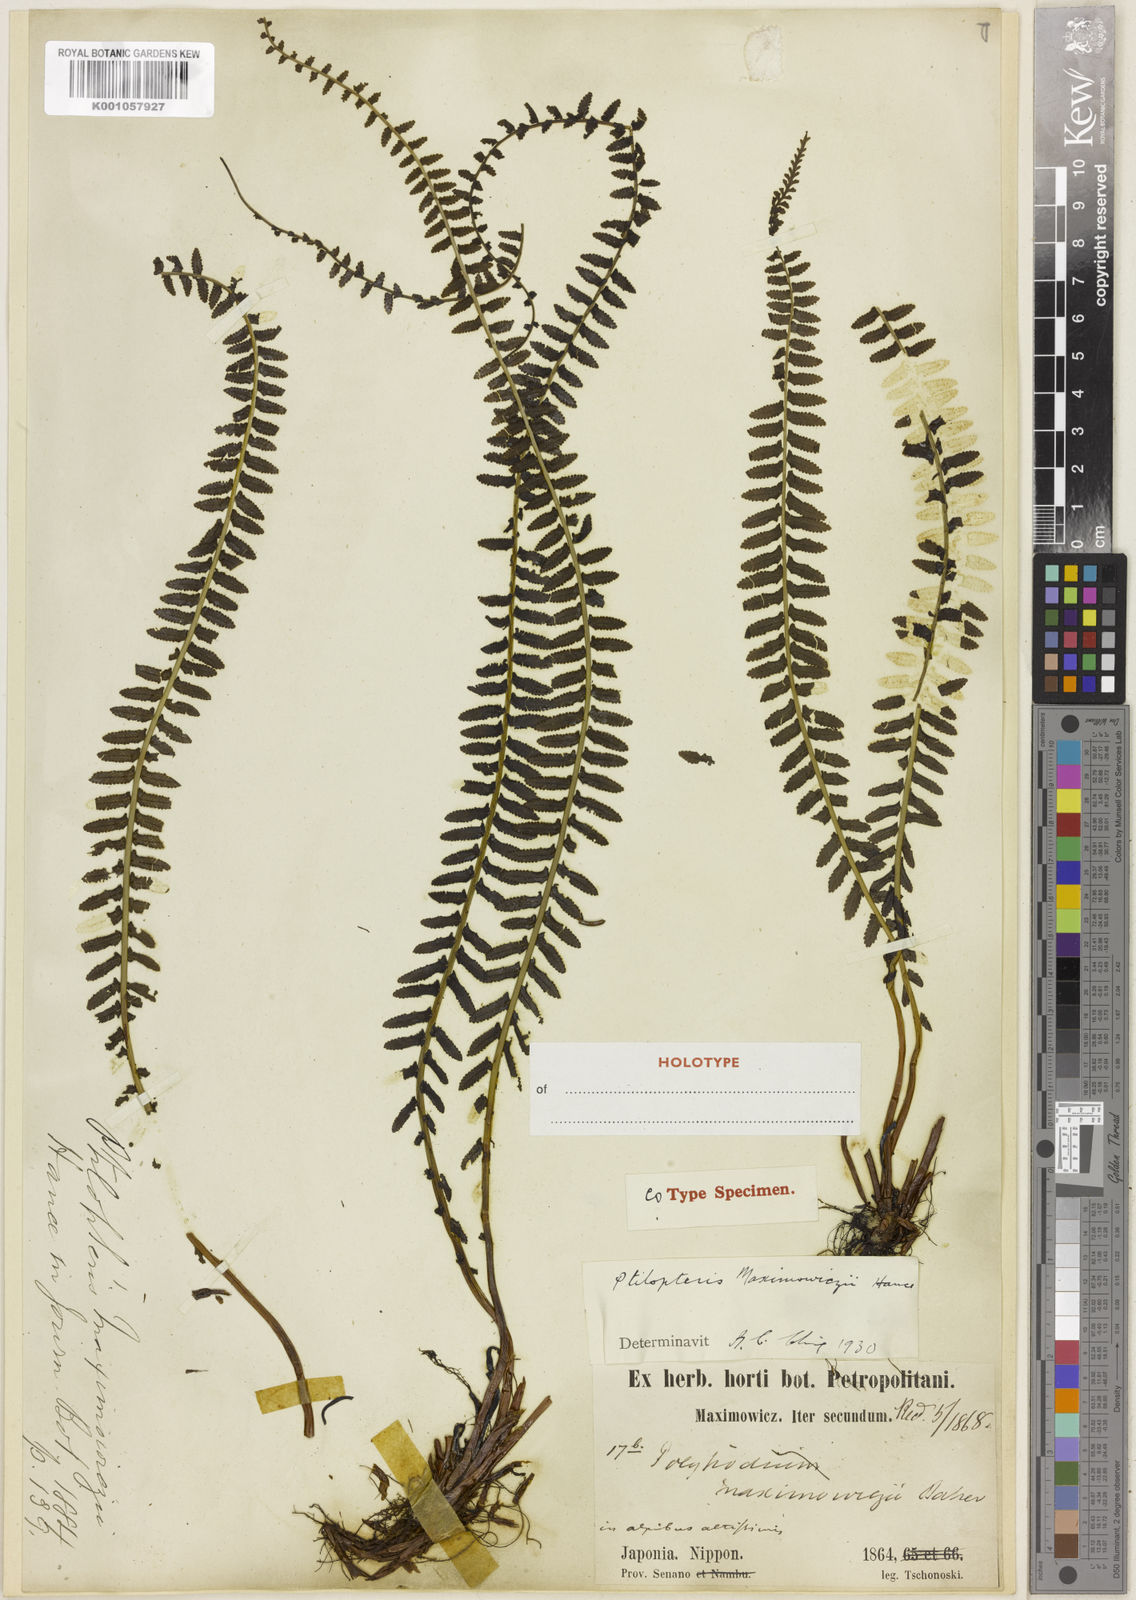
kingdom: Plantae
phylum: Tracheophyta
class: Polypodiopsida
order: Polypodiales
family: Dennstaedtiaceae
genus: Monachosorum
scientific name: Monachosorum maximowiczii
